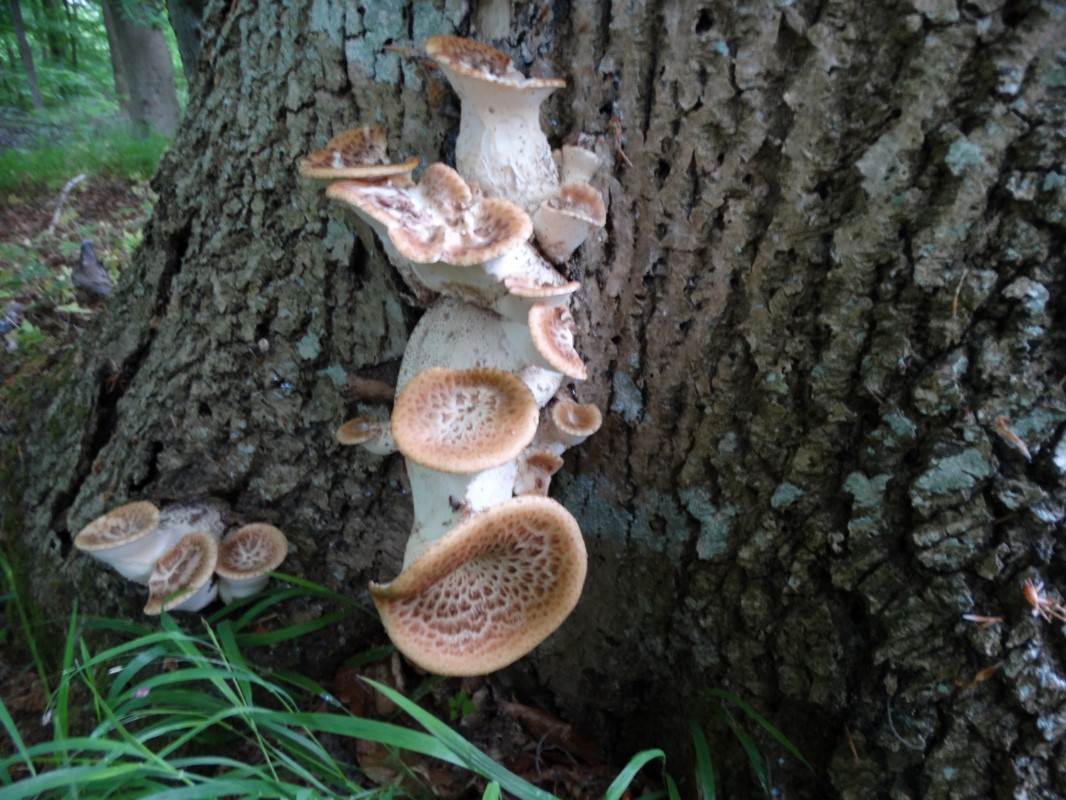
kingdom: Fungi
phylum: Basidiomycota
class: Agaricomycetes
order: Polyporales
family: Polyporaceae
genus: Cerioporus
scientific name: Cerioporus squamosus
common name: skællet stilkporesvamp
